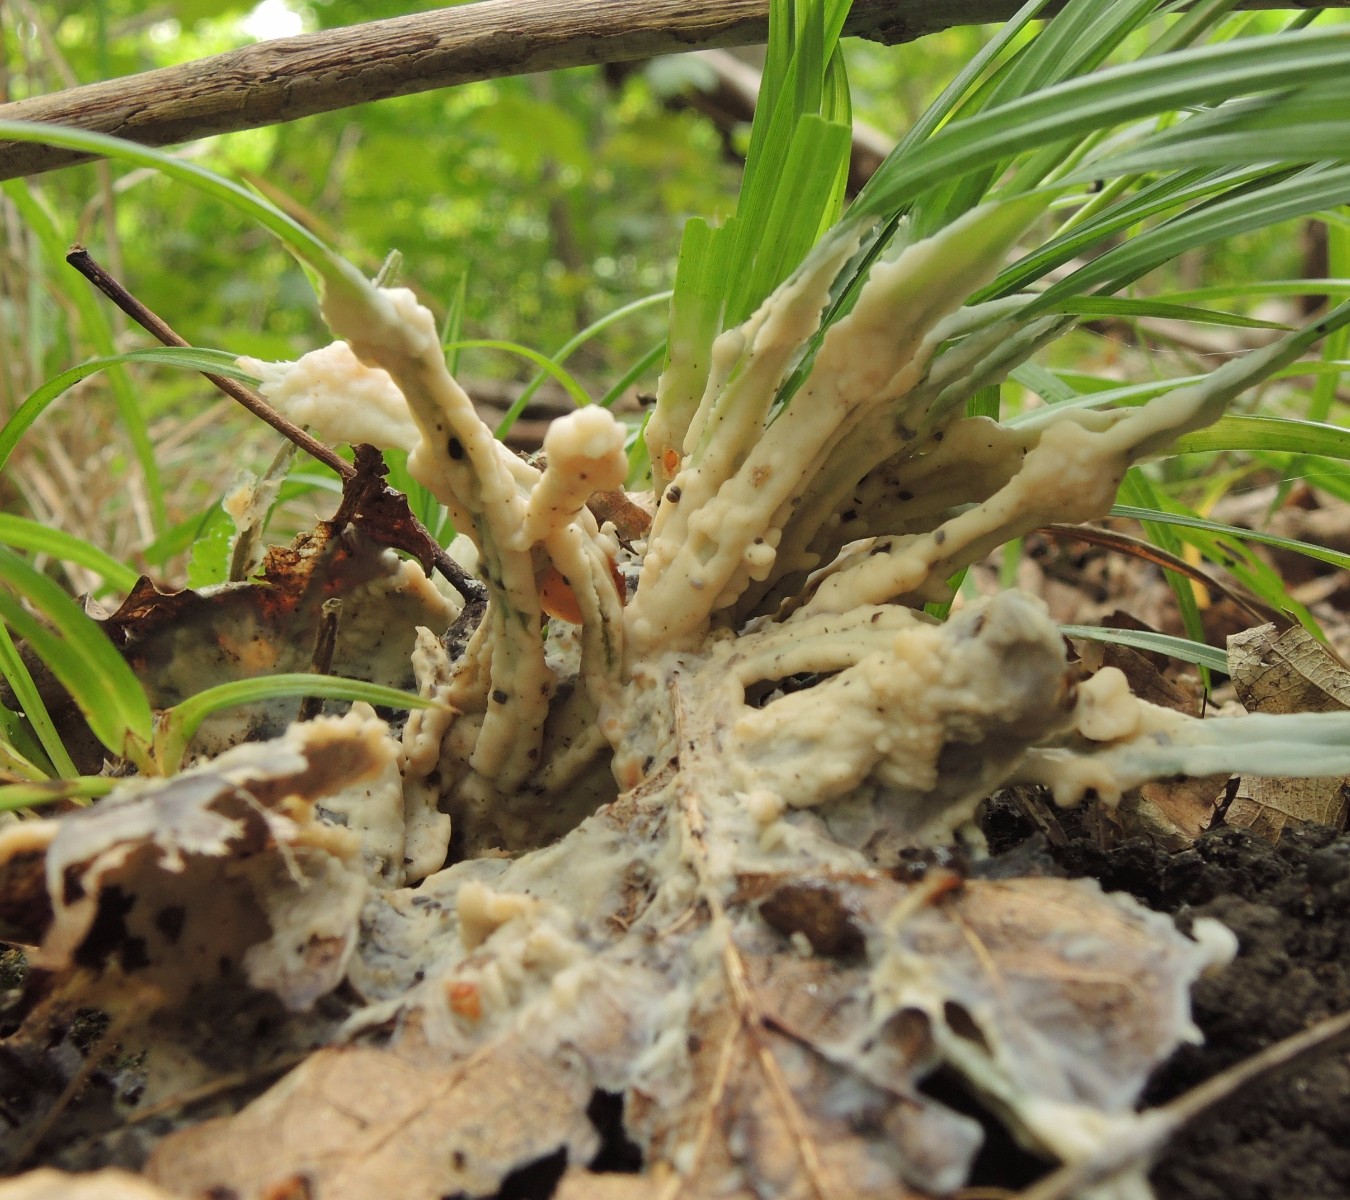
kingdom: Fungi
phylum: Basidiomycota
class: Agaricomycetes
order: Sebacinales
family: Sebacinaceae
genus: Sebacina
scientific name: Sebacina incrustans
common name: krybende bævretalg
